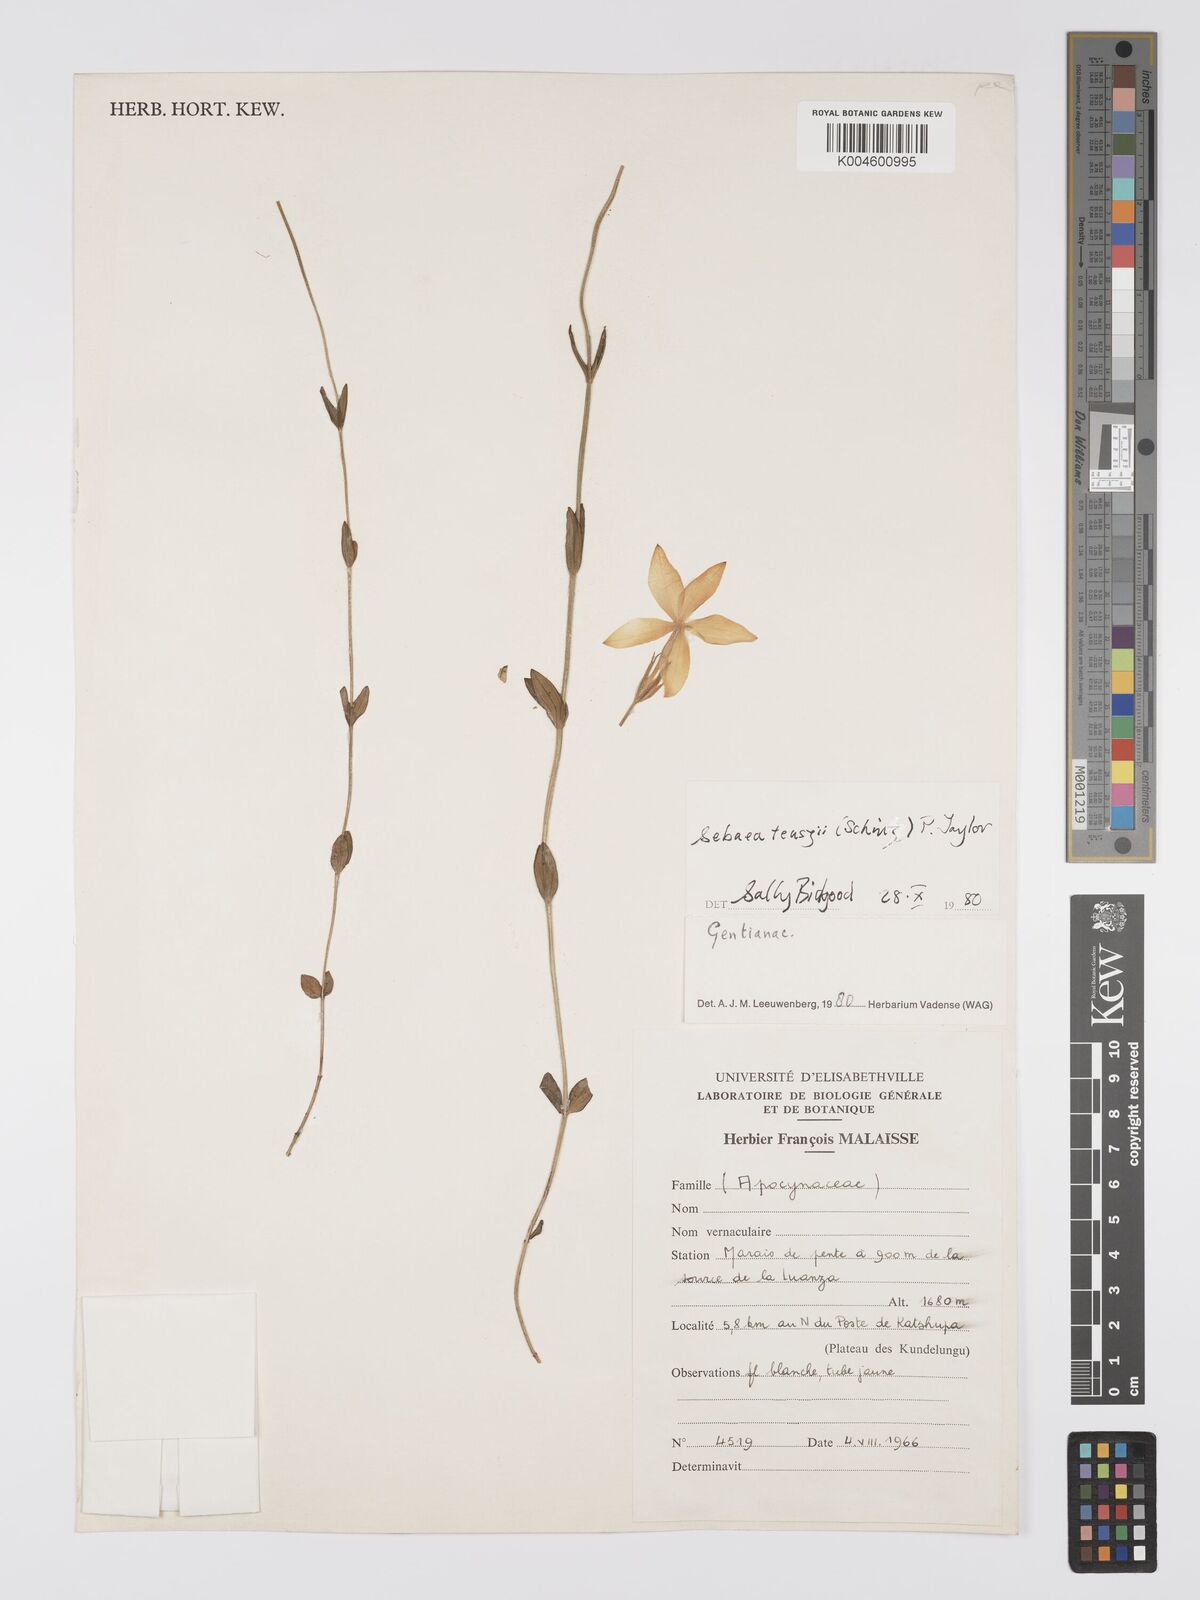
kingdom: Plantae
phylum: Tracheophyta
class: Magnoliopsida
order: Gentianales
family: Gentianaceae
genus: Exochaenium
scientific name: Exochaenium teuszii
